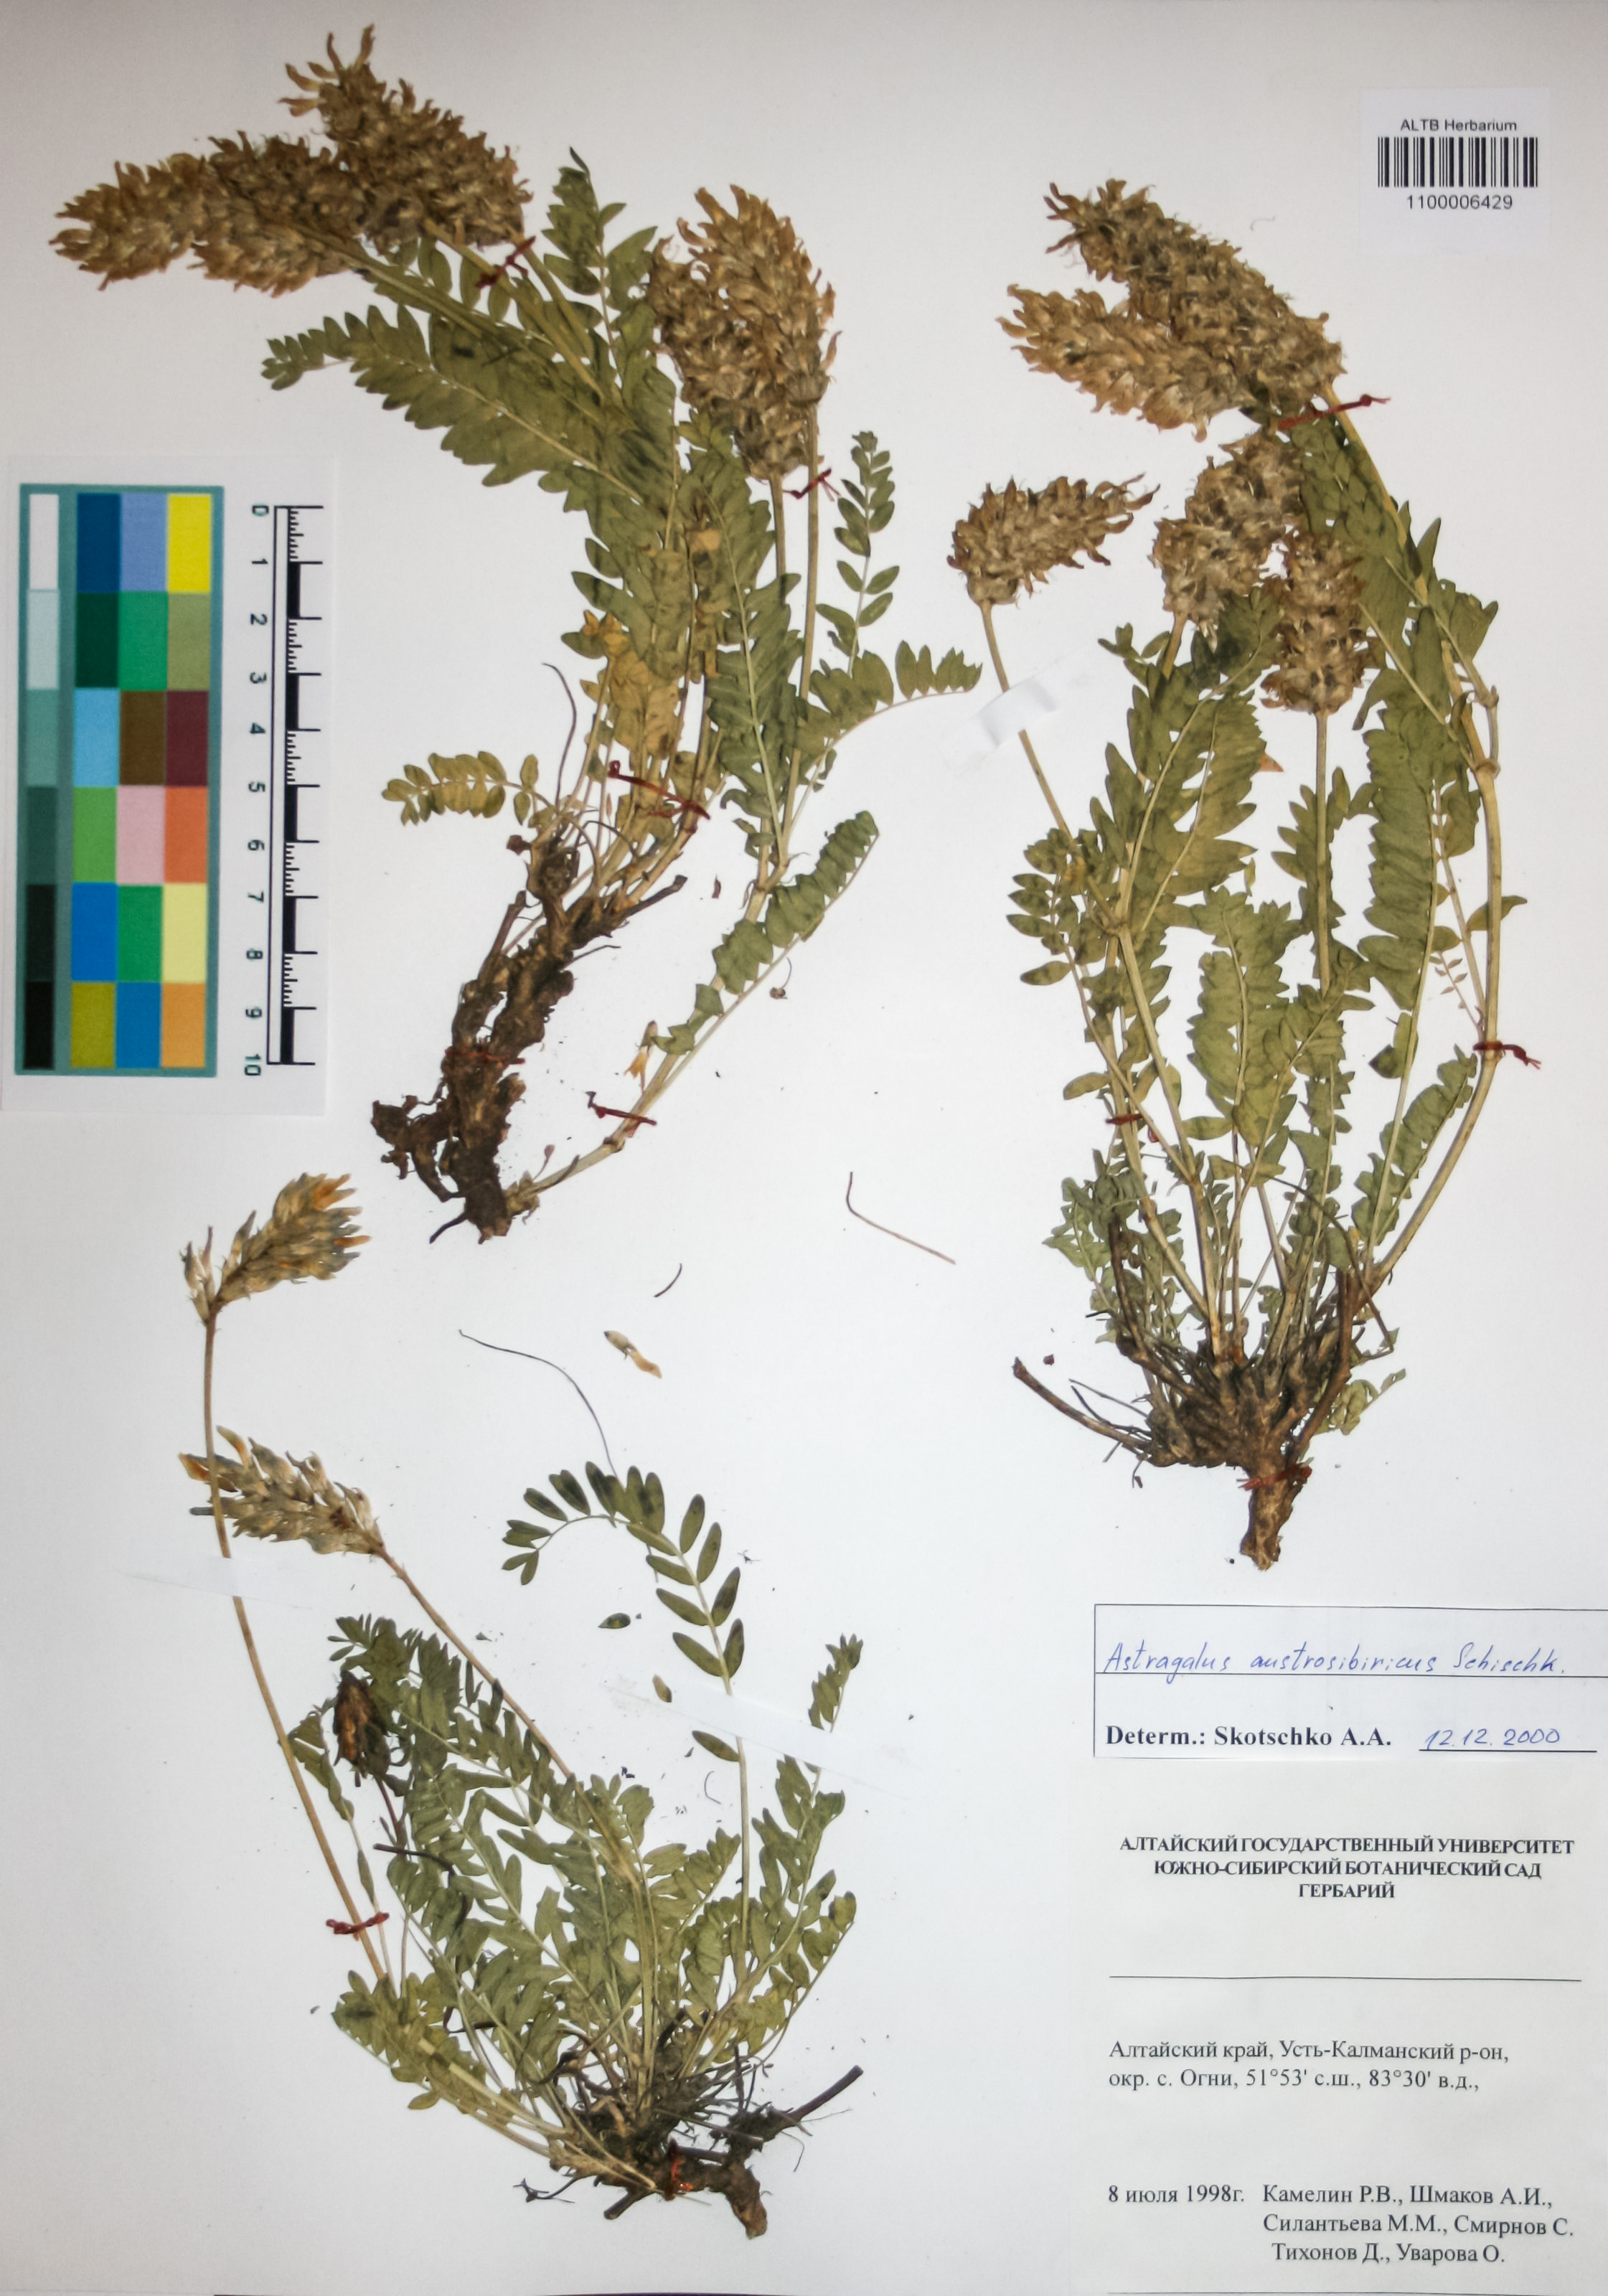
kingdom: Plantae
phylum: Tracheophyta
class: Magnoliopsida
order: Fabales
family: Fabaceae
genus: Astragalus
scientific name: Astragalus laxmannii
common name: Laxmann's milk-vetch
